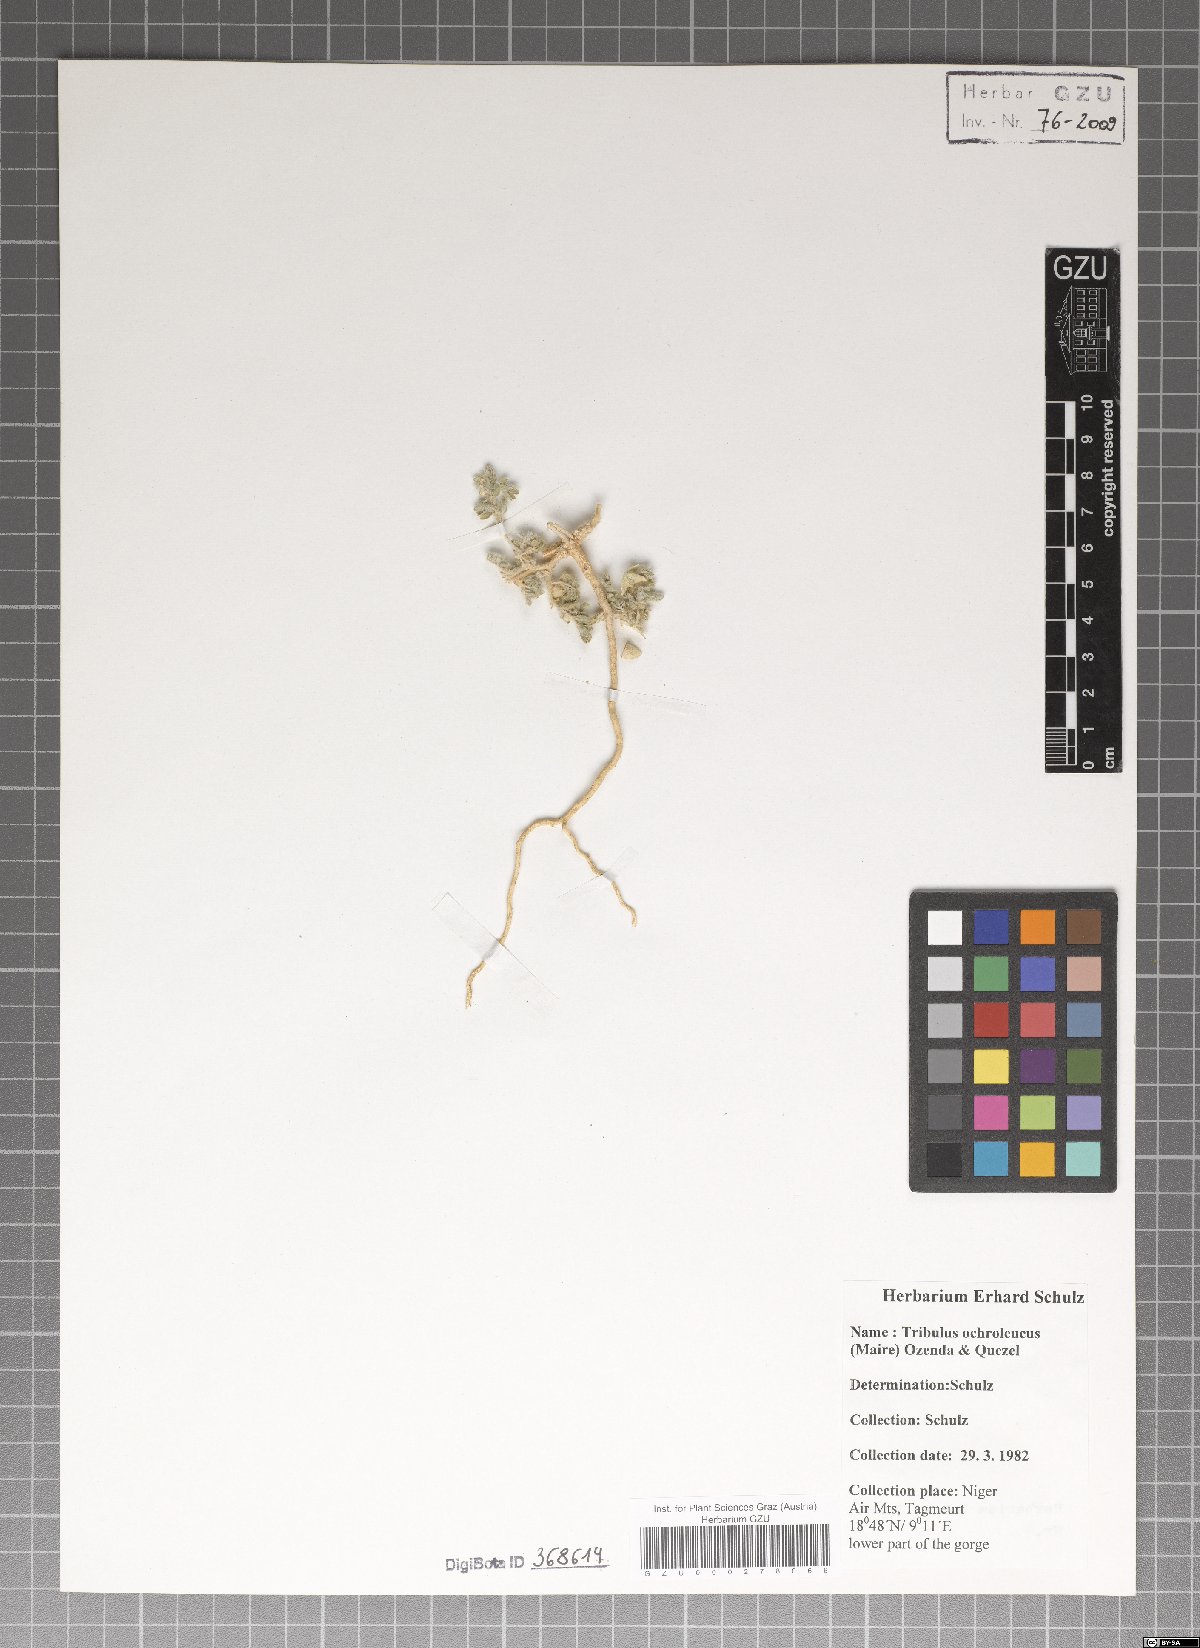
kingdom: Plantae
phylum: Tracheophyta
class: Magnoliopsida
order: Zygophyllales
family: Zygophyllaceae
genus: Tribulus
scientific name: Tribulus ochroleucus
